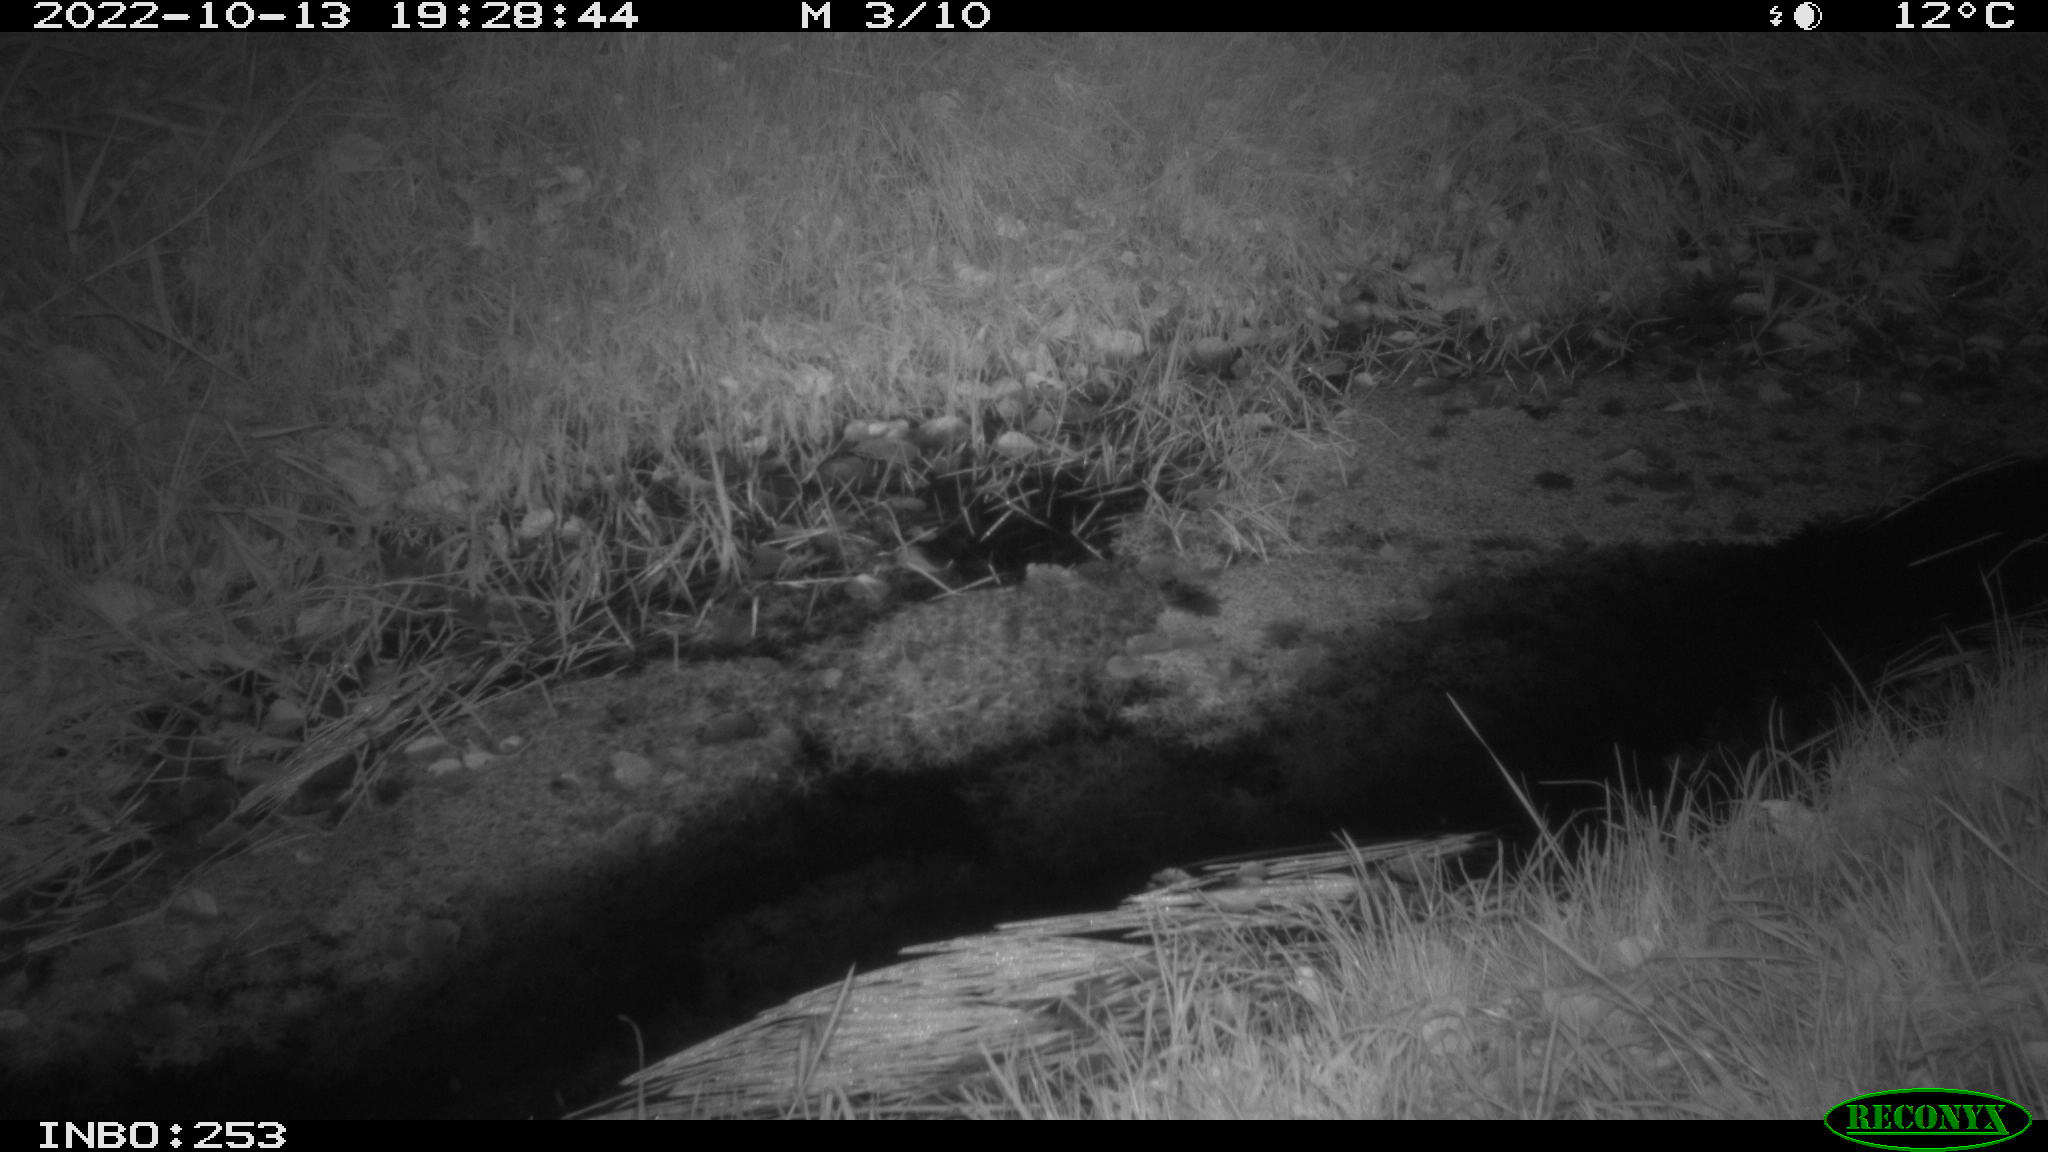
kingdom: Animalia
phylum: Chordata
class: Mammalia
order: Artiodactyla
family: Cervidae
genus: Capreolus
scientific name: Capreolus capreolus
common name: Western roe deer
